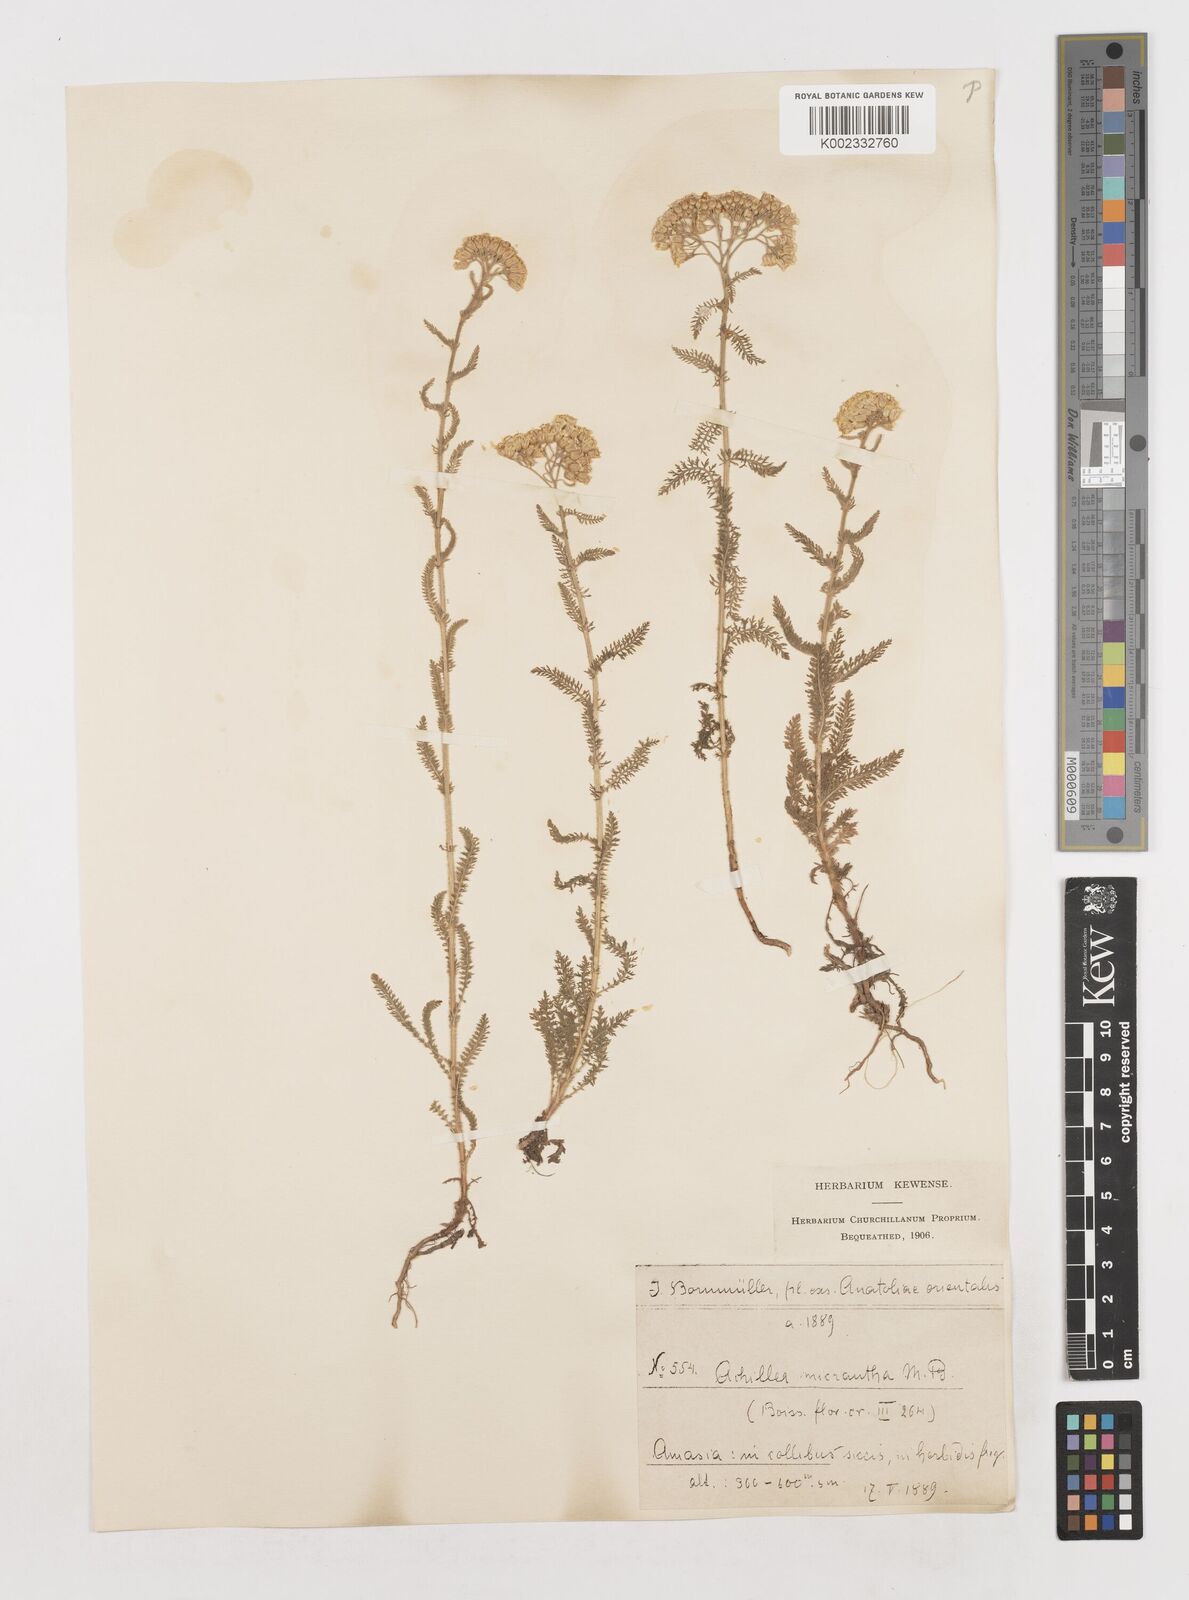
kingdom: Plantae
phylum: Tracheophyta
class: Magnoliopsida
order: Asterales
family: Asteraceae
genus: Achillea
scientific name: Achillea micrantha
